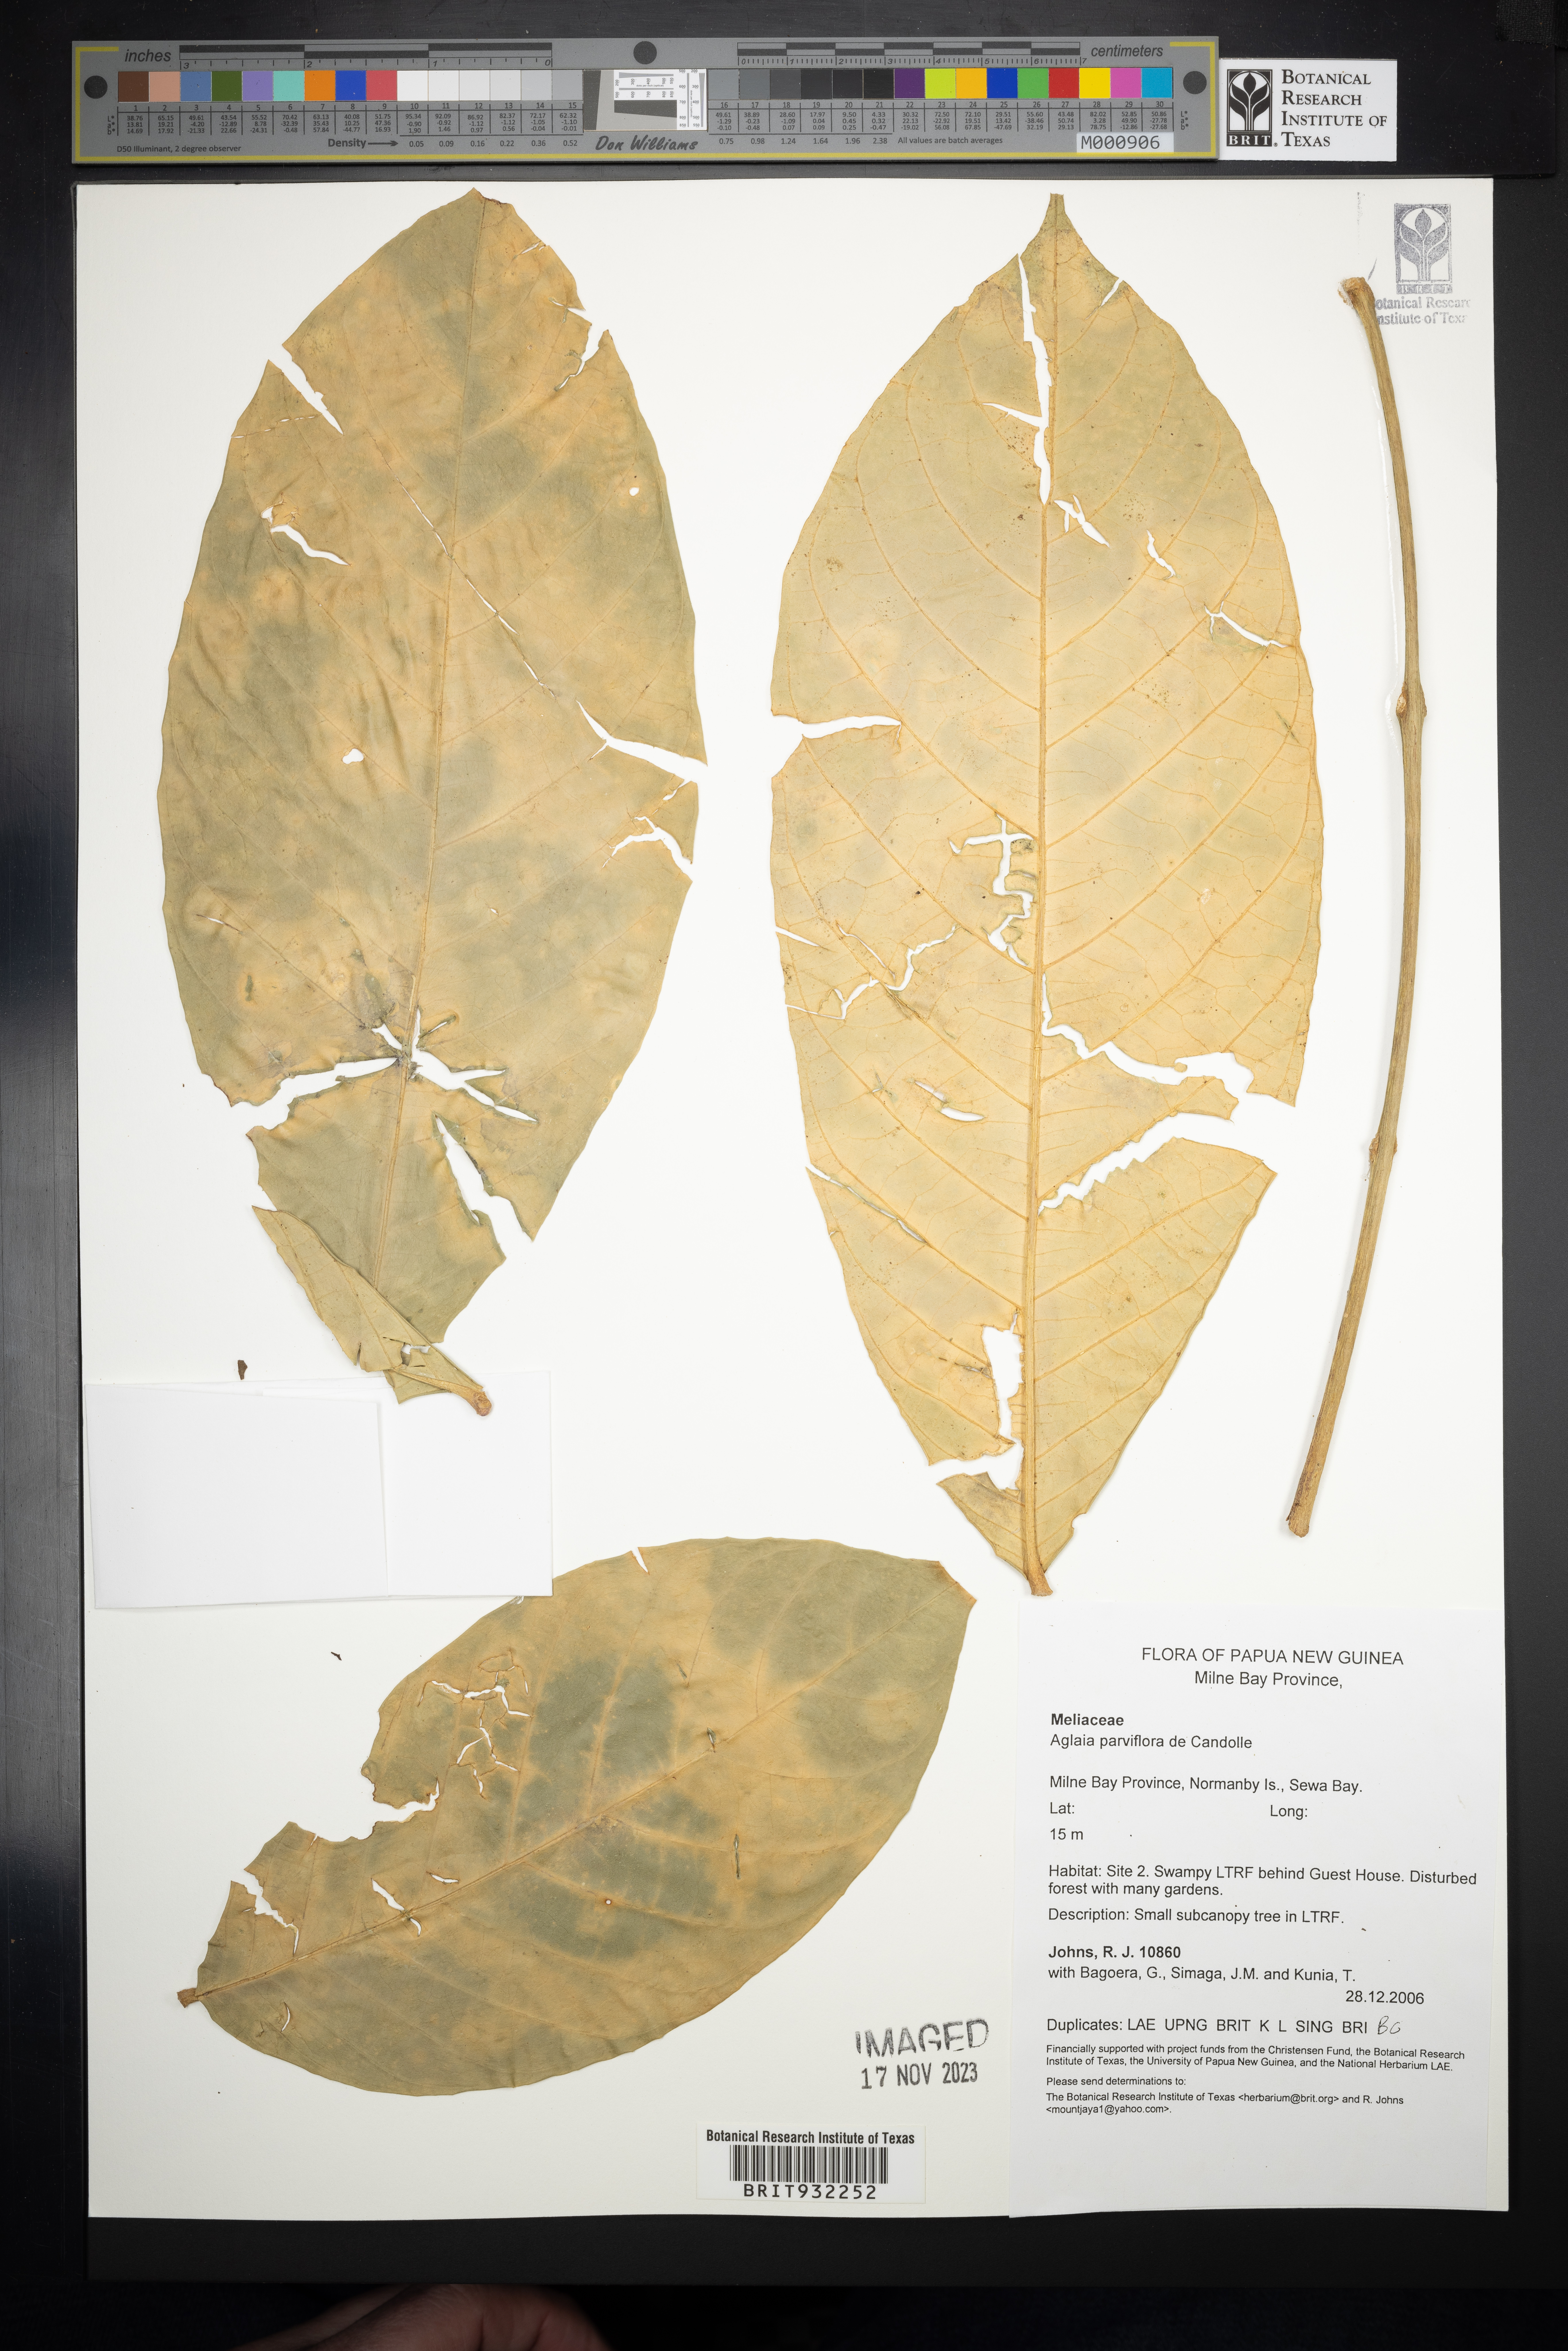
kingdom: Plantae
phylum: Tracheophyta
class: Magnoliopsida
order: Sapindales
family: Meliaceae
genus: Aglaia
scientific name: Aglaia
